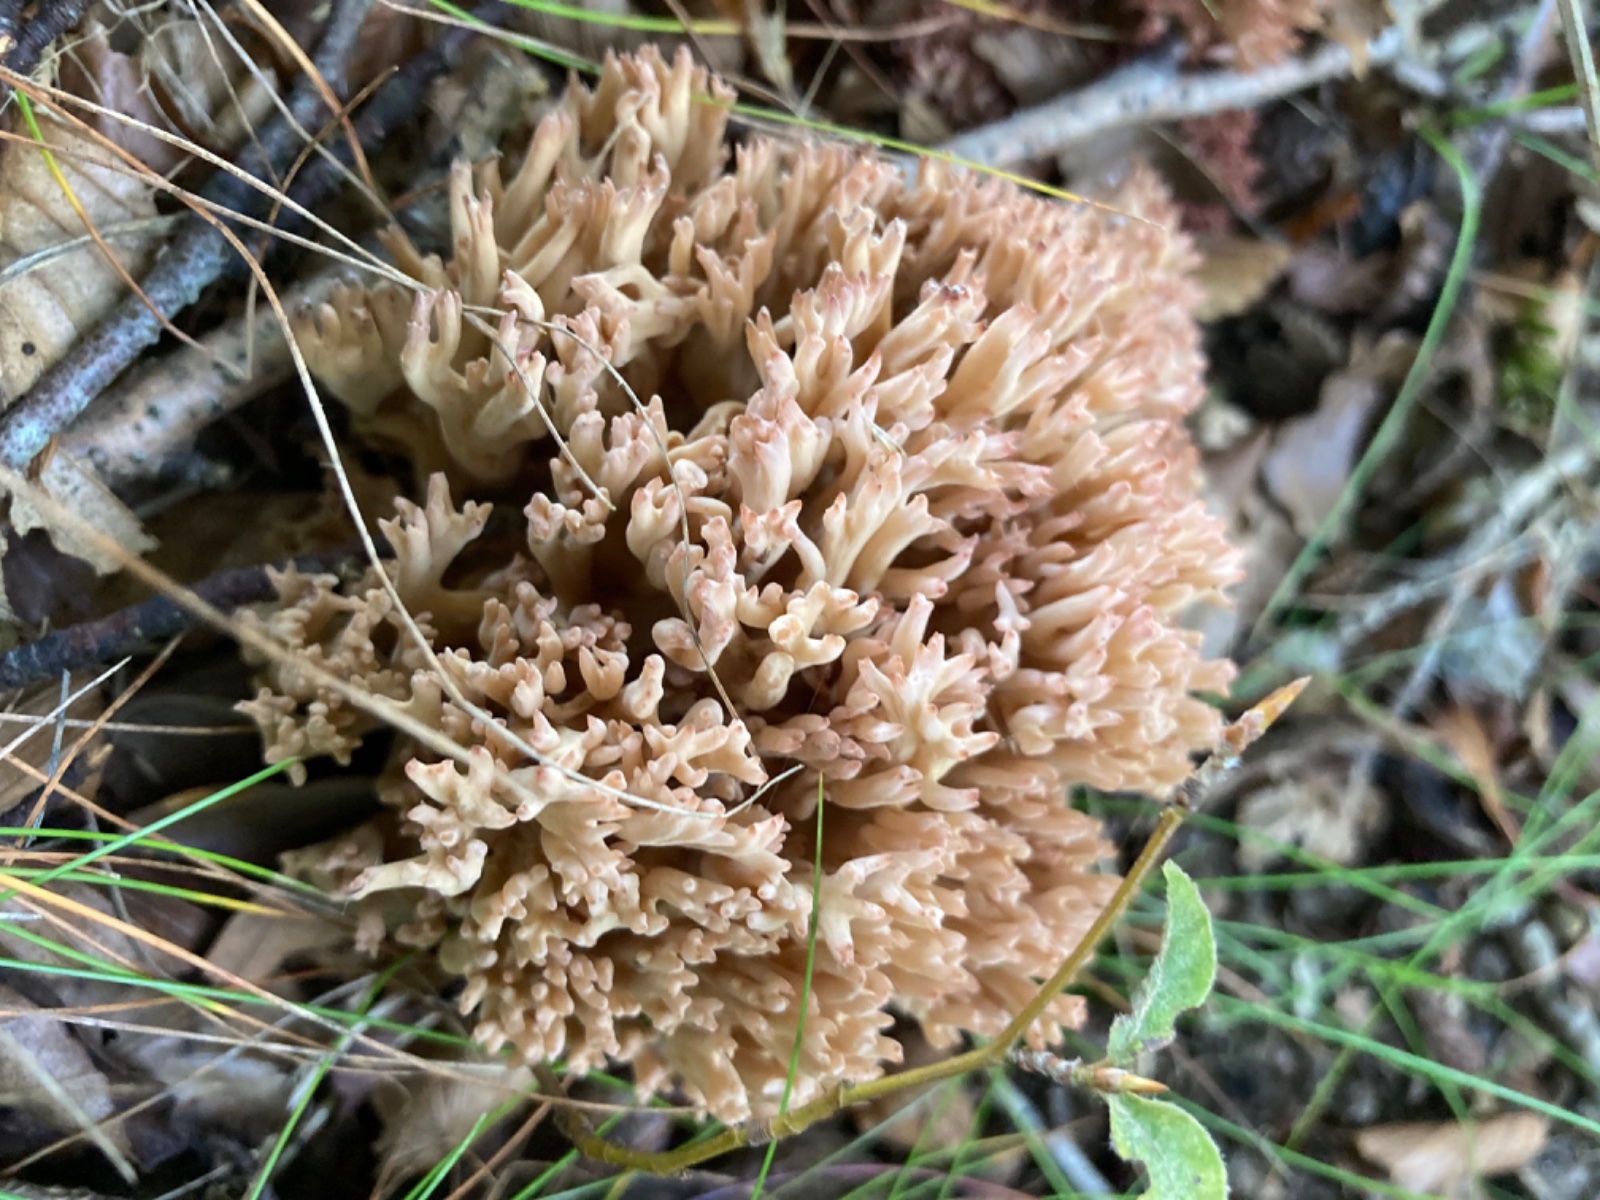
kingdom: Fungi
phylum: Basidiomycota
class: Agaricomycetes
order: Gomphales
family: Gomphaceae
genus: Ramaria
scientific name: Ramaria botrytis
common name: drue-koralsvamp
